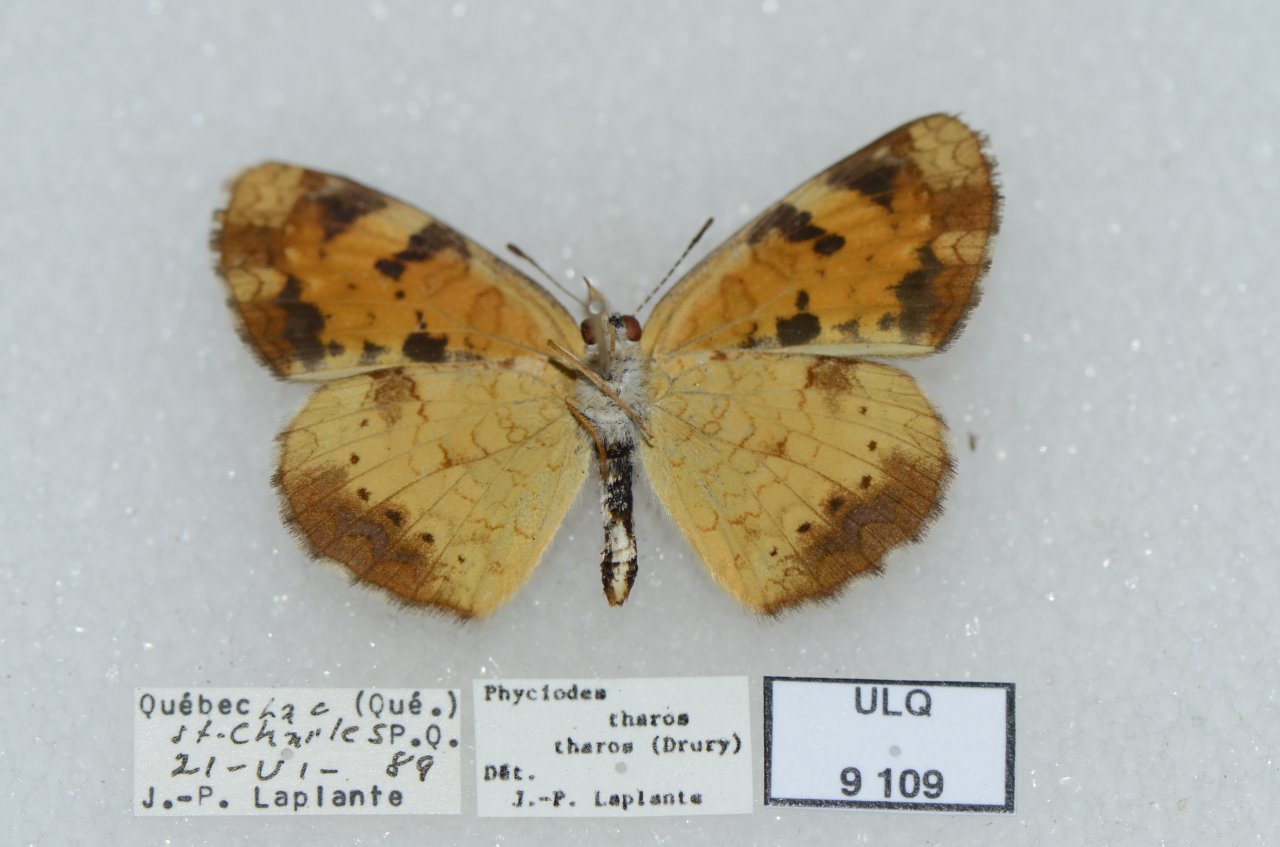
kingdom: Animalia
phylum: Arthropoda
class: Insecta
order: Lepidoptera
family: Nymphalidae
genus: Phyciodes
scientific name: Phyciodes tharos
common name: Northern Crescent
